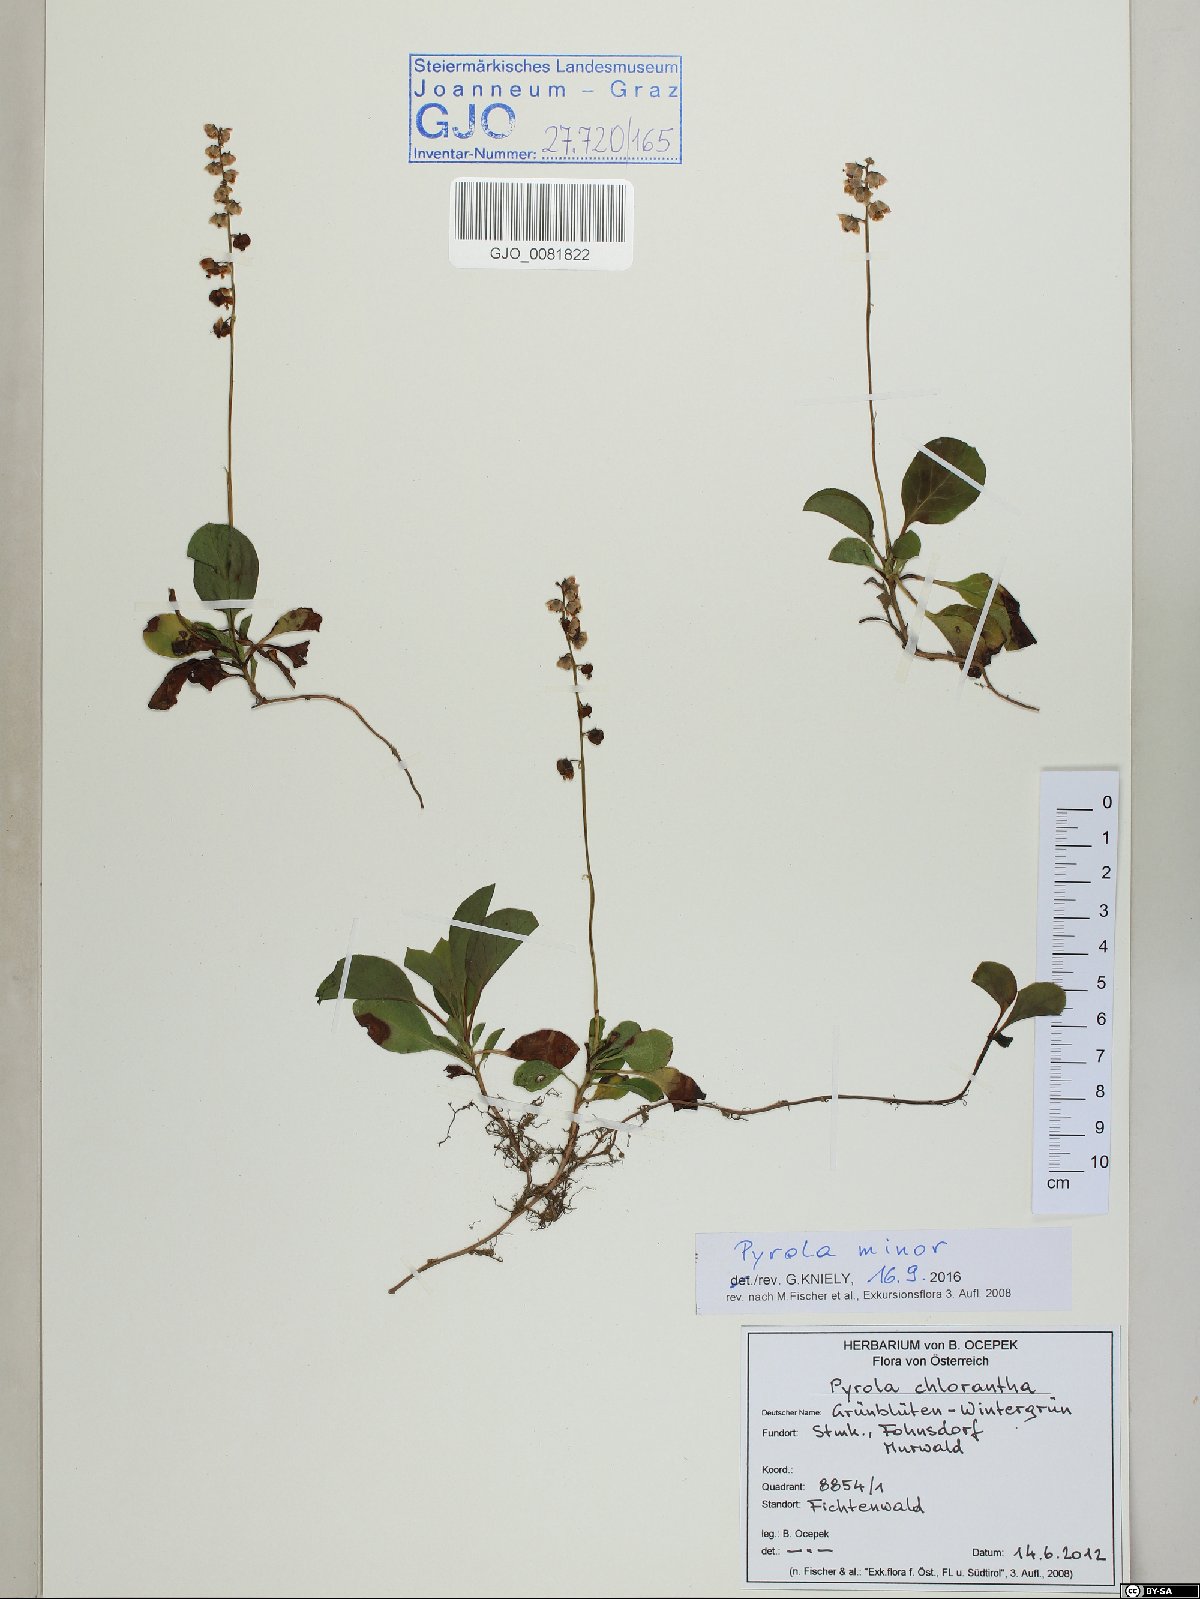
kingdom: Plantae
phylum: Tracheophyta
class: Magnoliopsida
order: Ericales
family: Ericaceae
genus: Pyrola
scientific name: Pyrola minor
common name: Common wintergreen
